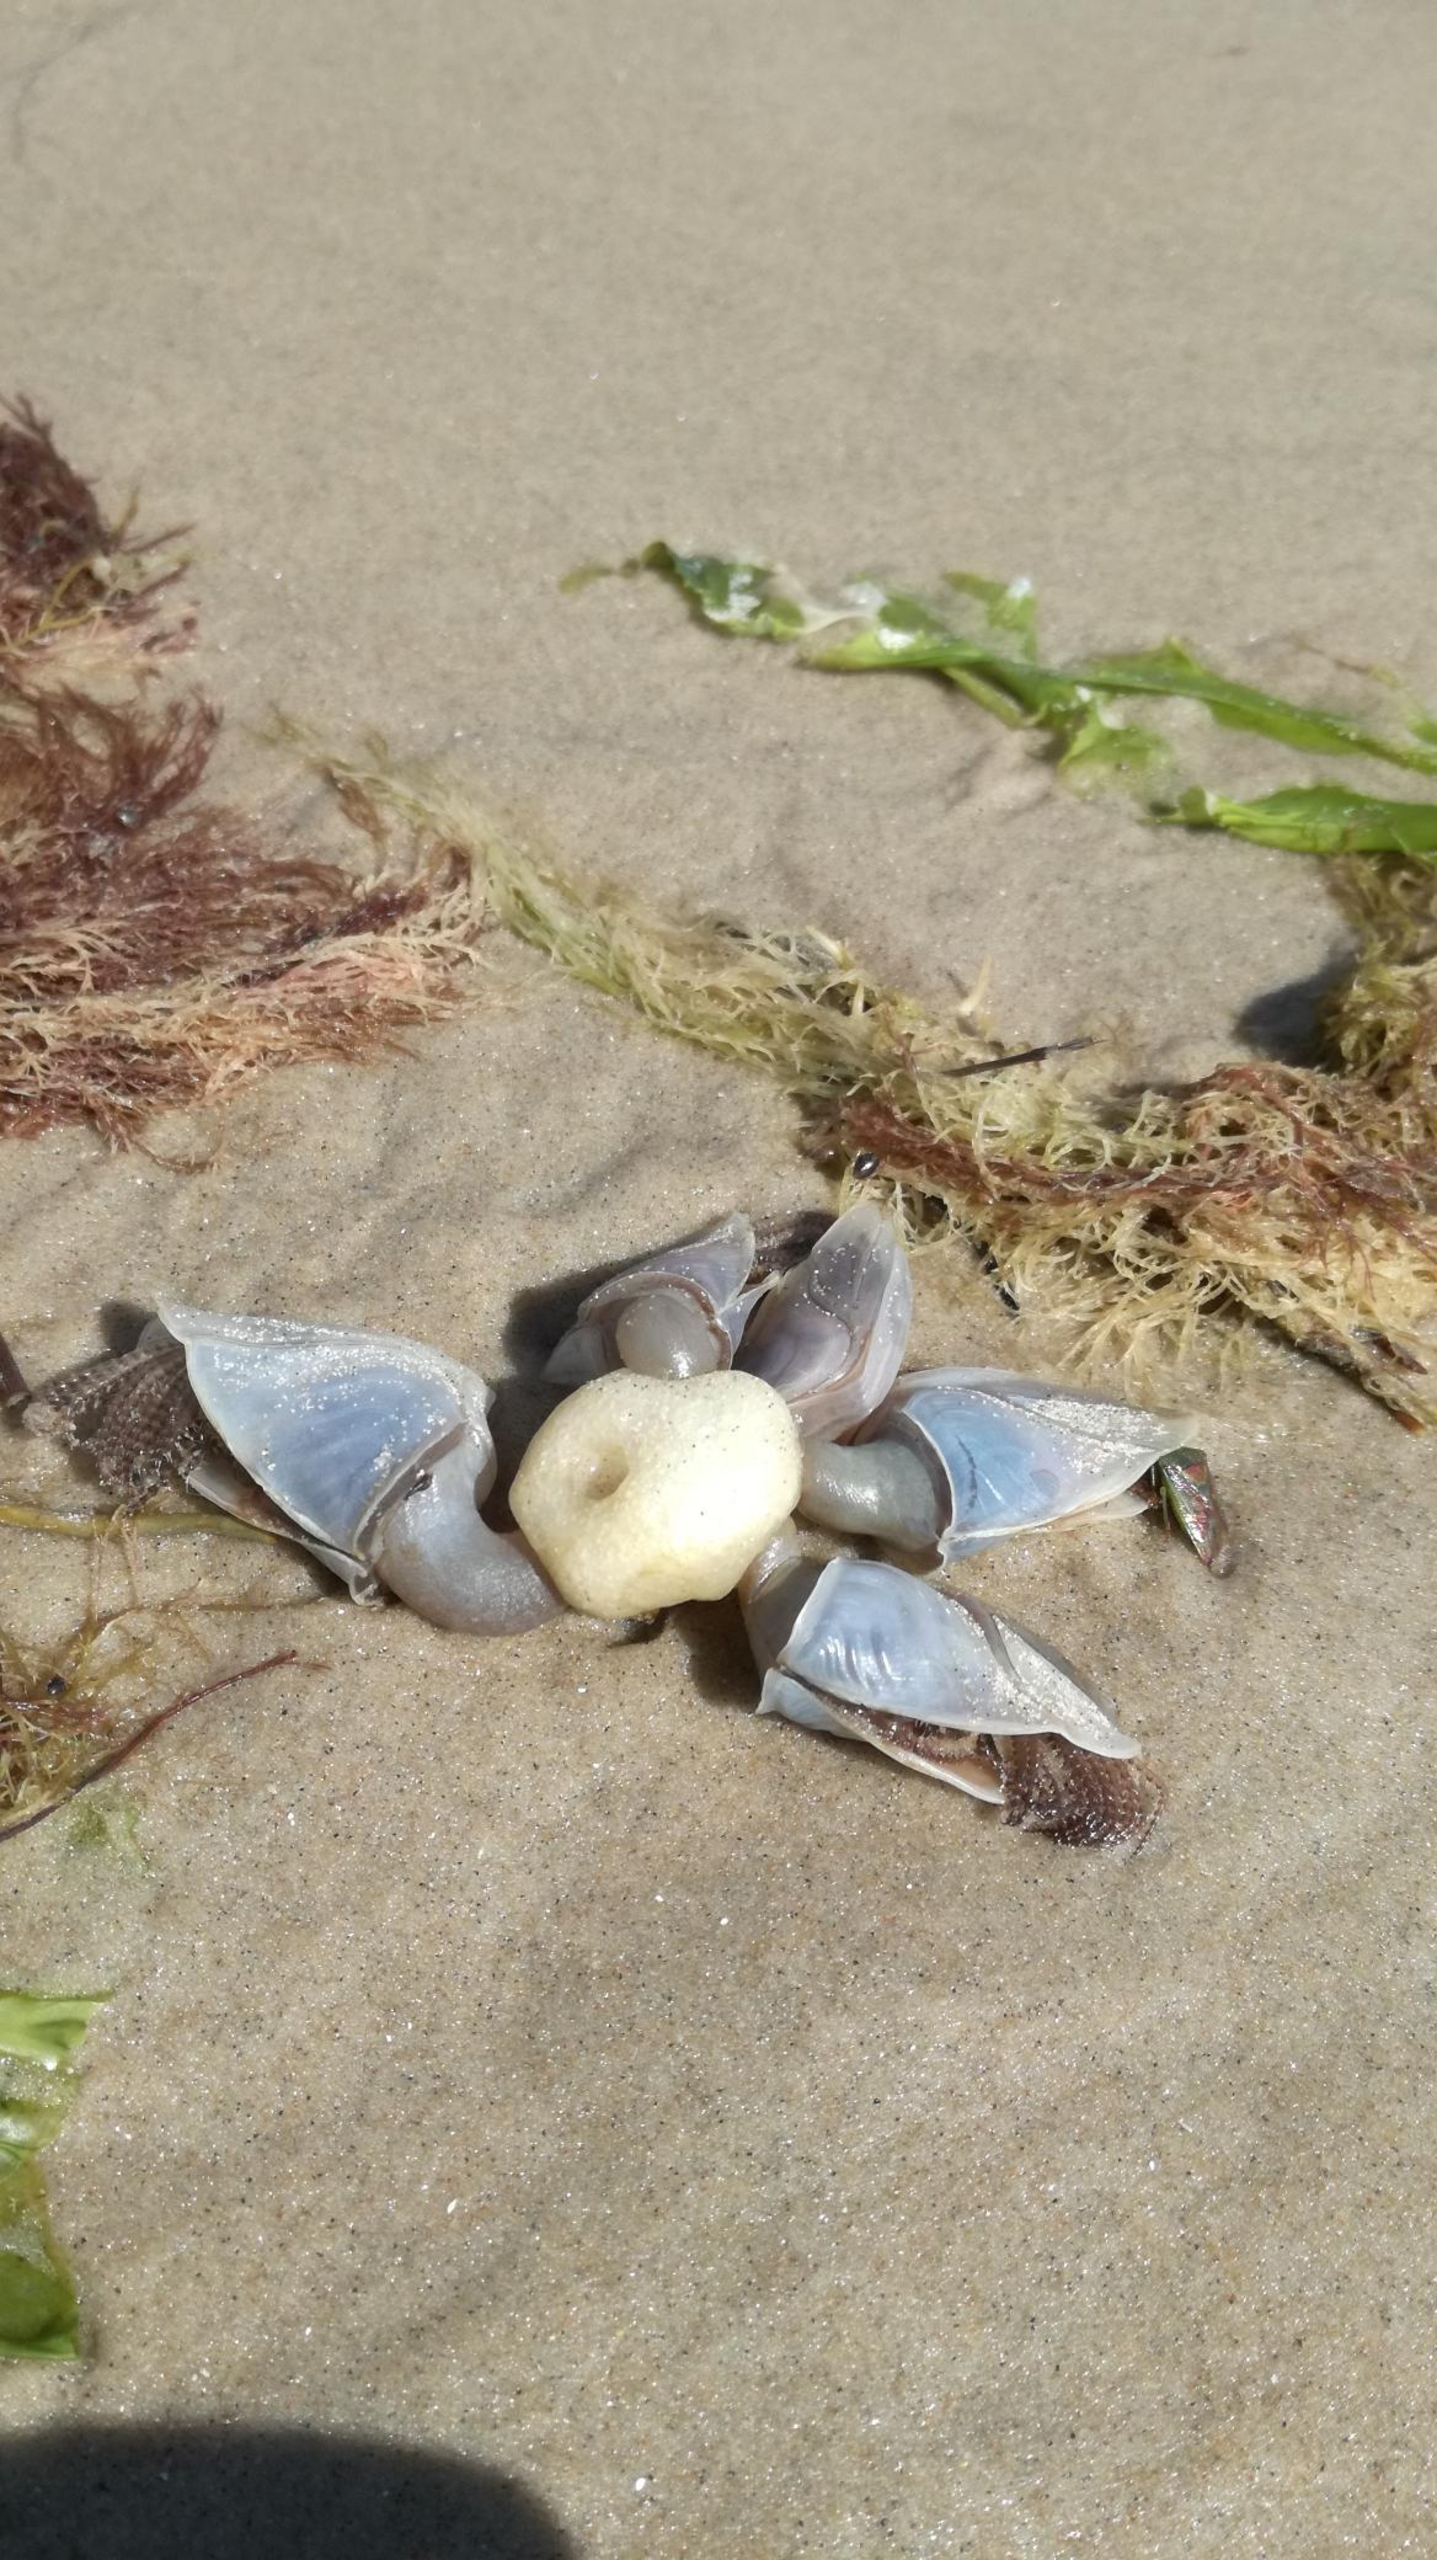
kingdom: Animalia
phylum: Arthropoda
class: Maxillopoda
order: Pedunculata
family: Lepadidae
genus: Dosima
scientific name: Dosima fascicularis
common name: Furet langhals
